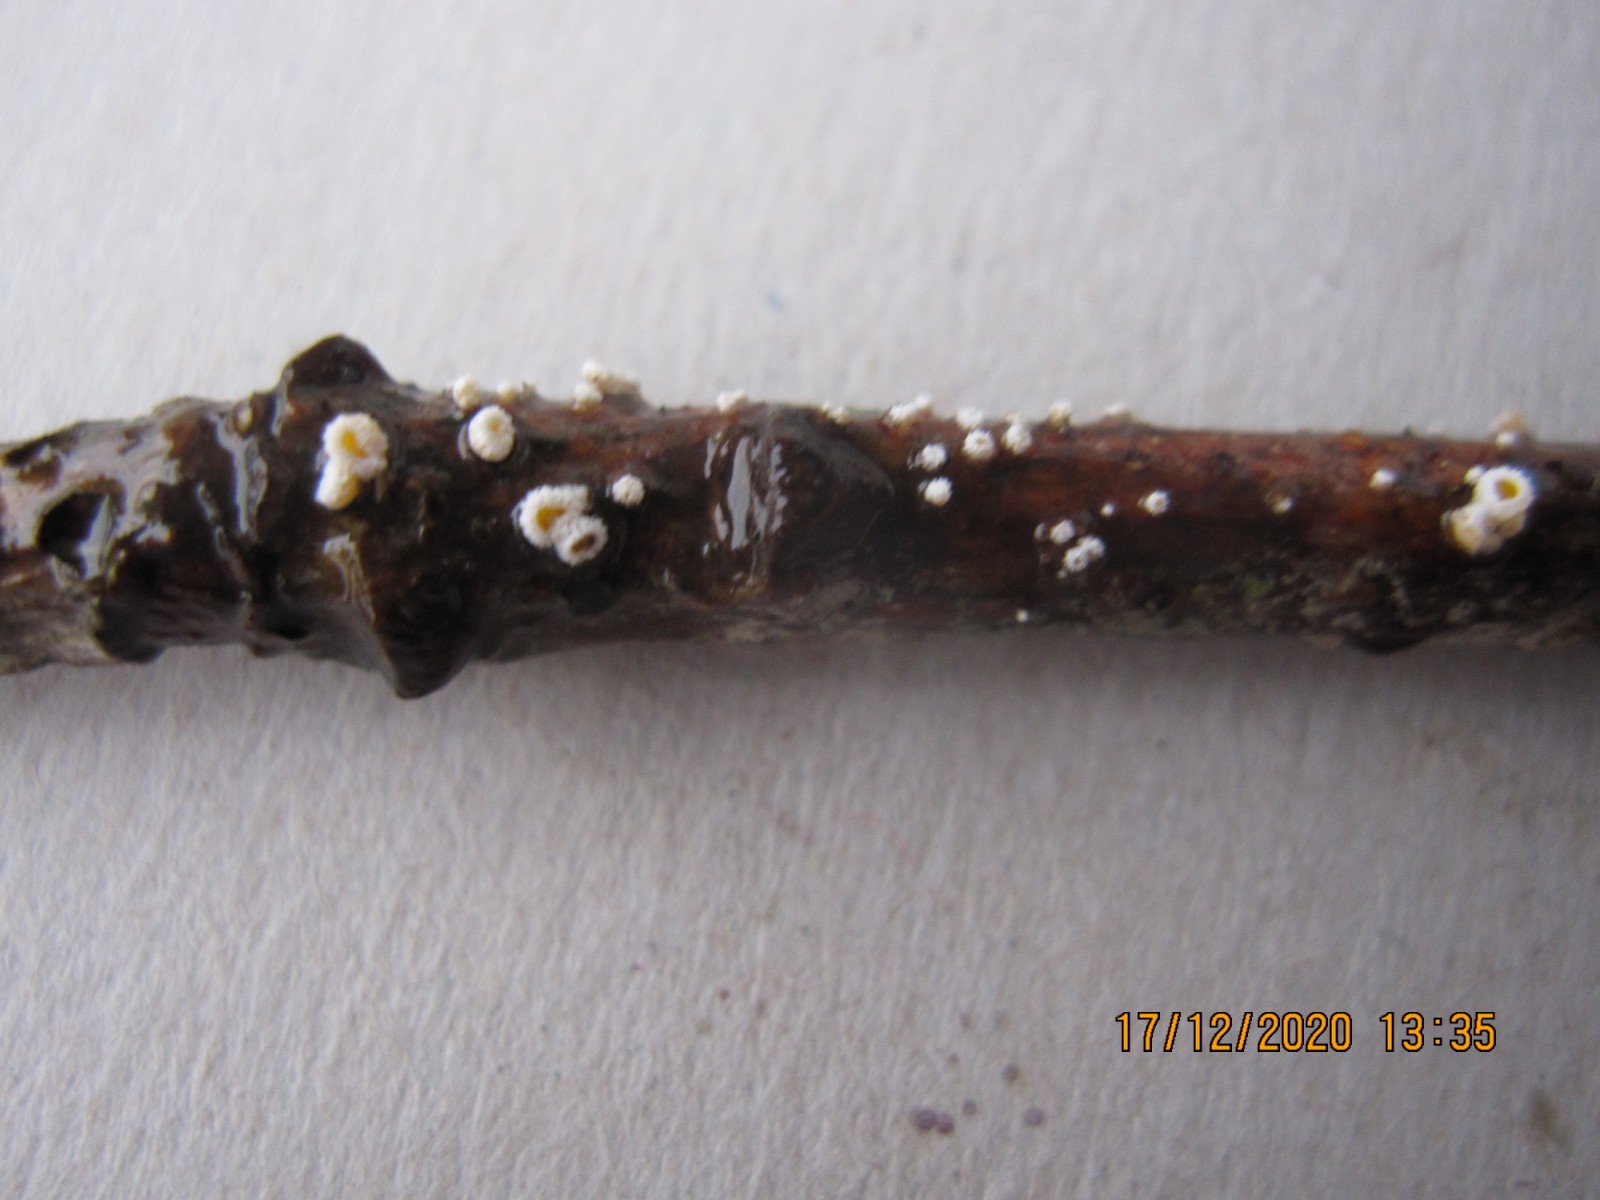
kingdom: Fungi
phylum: Ascomycota
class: Leotiomycetes
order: Helotiales
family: Lachnaceae
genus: Capitotricha
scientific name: Capitotricha bicolor
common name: prægtig frynseskive
